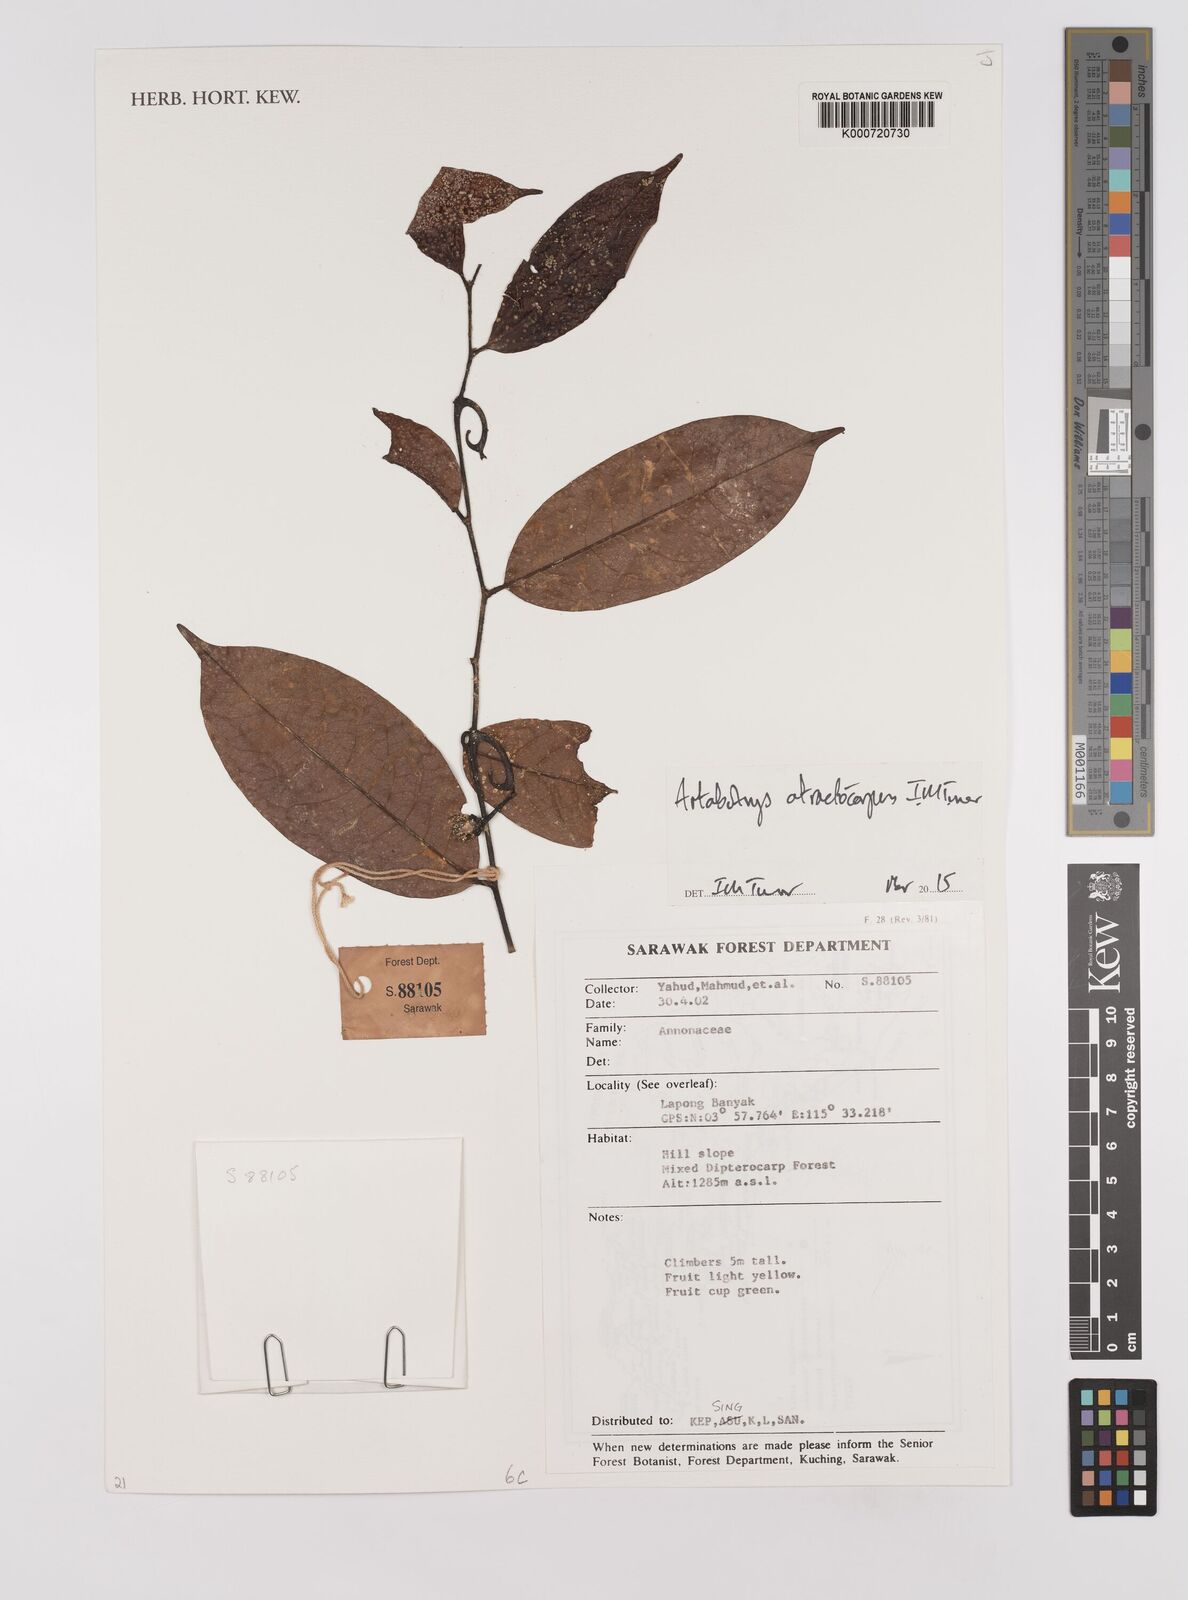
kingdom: Plantae
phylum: Tracheophyta
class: Magnoliopsida
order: Magnoliales
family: Annonaceae
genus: Artabotrys
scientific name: Artabotrys atractocarpus
